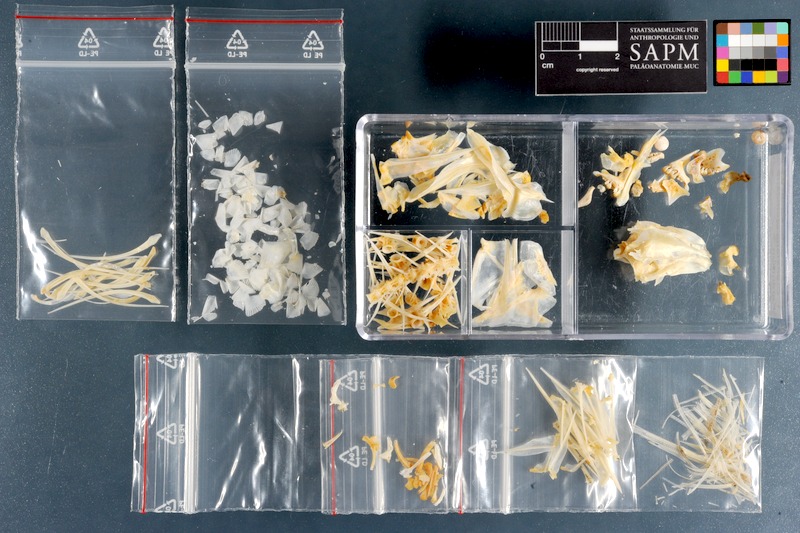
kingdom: Animalia
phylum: Chordata
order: Perciformes
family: Sparidae
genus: Crenidens
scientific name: Crenidens crenidens
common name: Karenteen seabream
